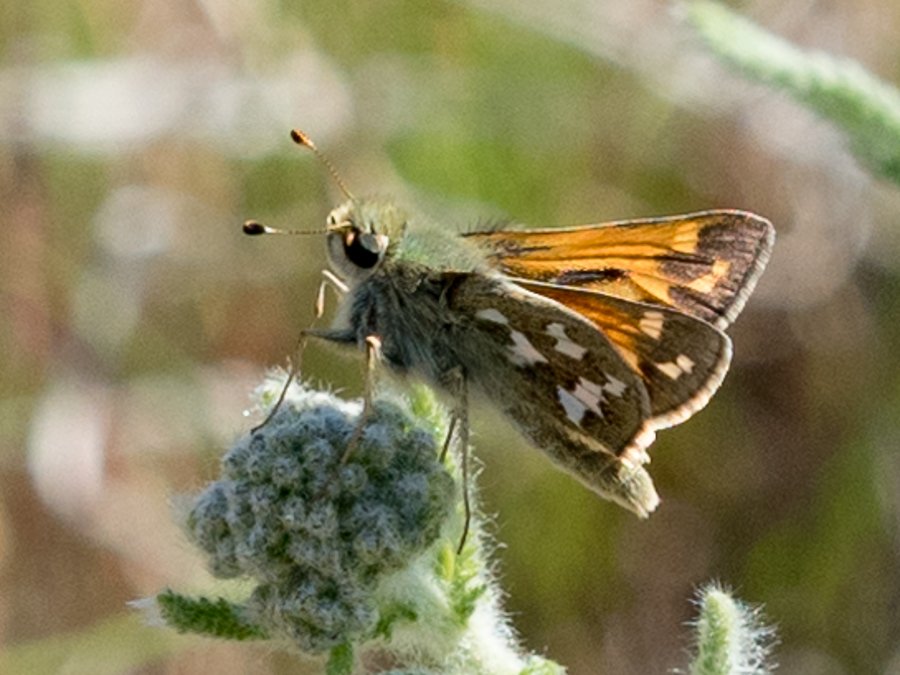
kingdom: Animalia
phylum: Arthropoda
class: Insecta
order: Lepidoptera
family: Hesperiidae
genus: Hesperia
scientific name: Hesperia juba
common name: Juba Skipper
